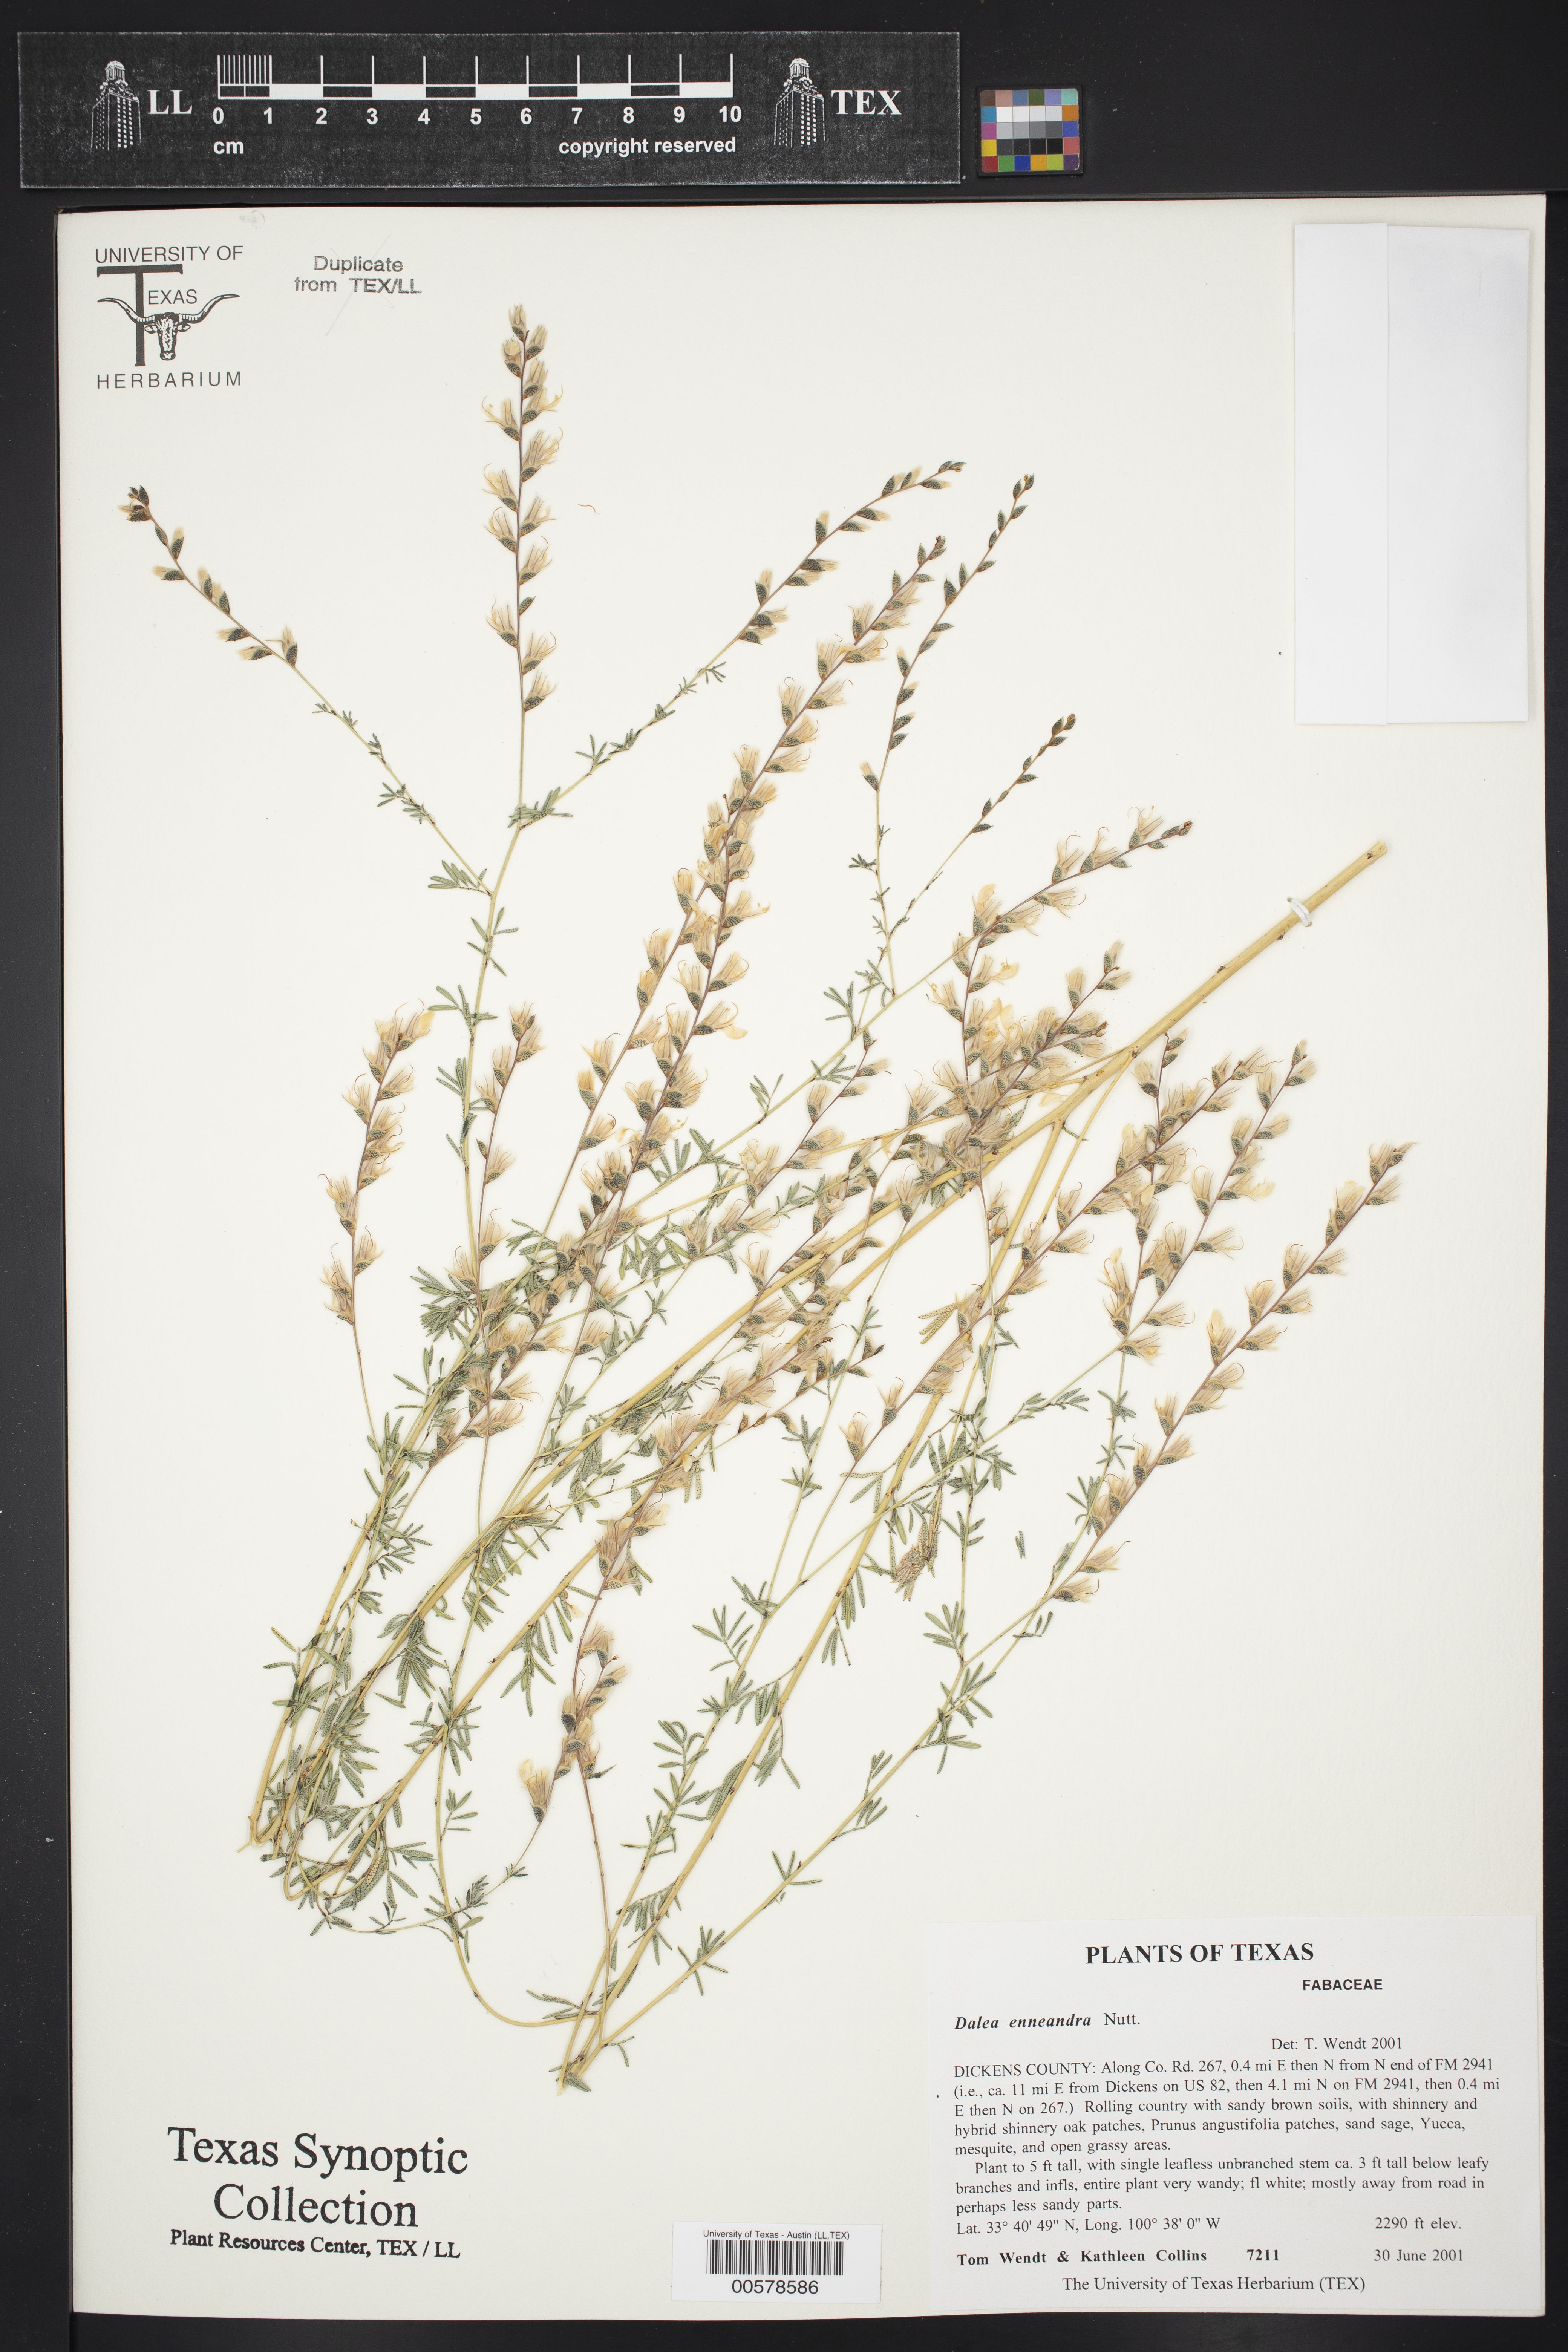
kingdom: Plantae
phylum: Tracheophyta
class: Magnoliopsida
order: Fabales
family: Fabaceae
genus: Dalea
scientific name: Dalea enneandra
